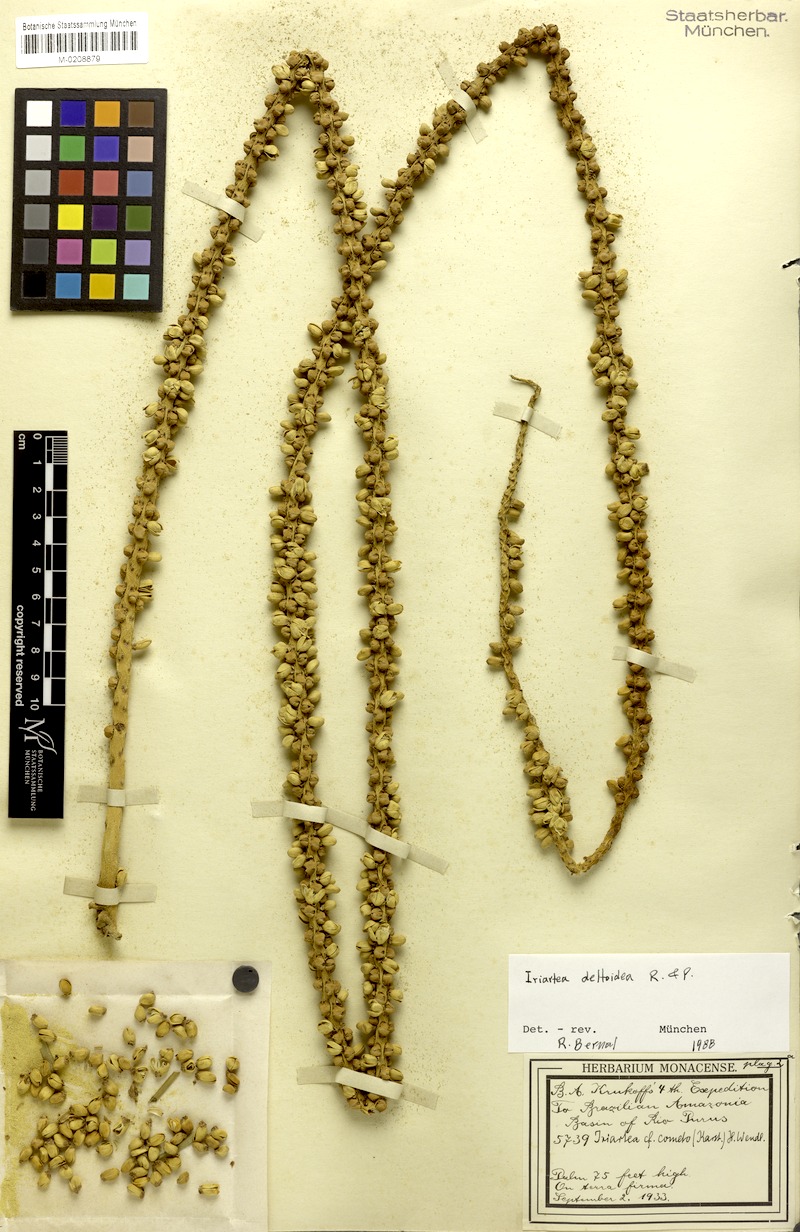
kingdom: Plantae
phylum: Tracheophyta
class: Liliopsida
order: Arecales
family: Arecaceae
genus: Iriartea
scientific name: Iriartea deltoidea
